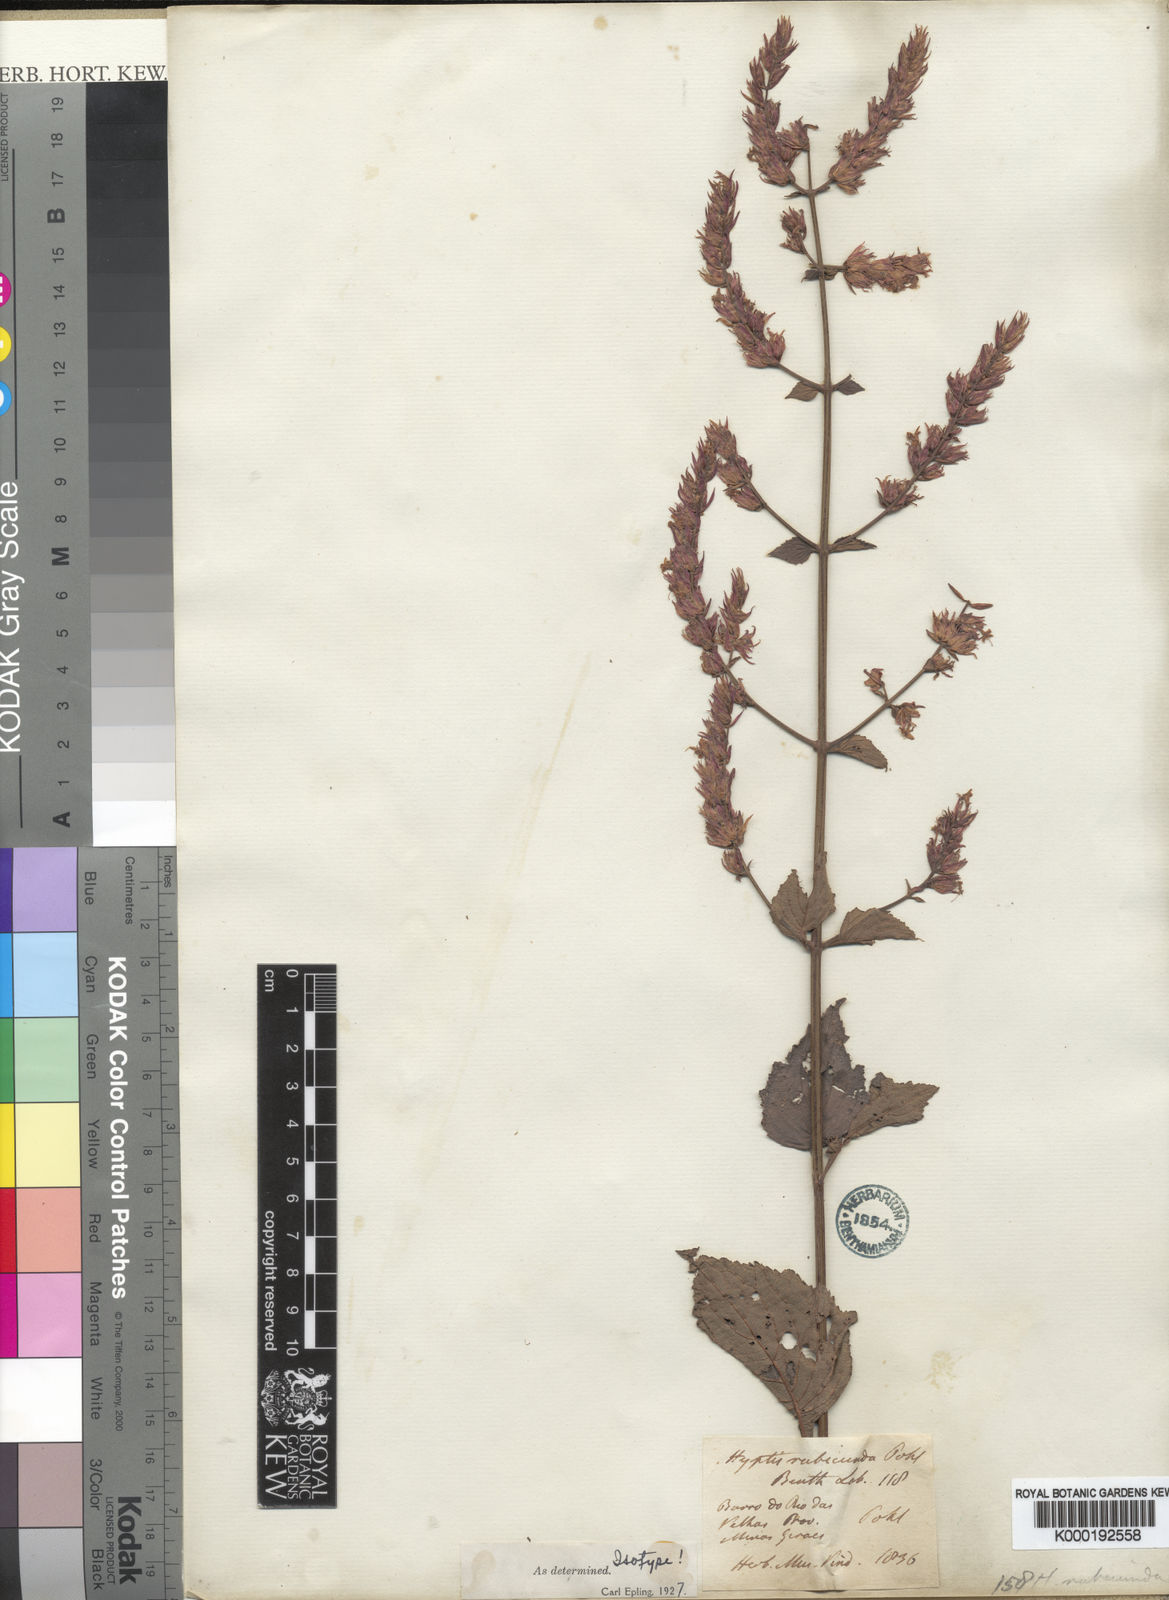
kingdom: Plantae
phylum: Tracheophyta
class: Magnoliopsida
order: Lamiales
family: Lamiaceae
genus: Cantinoa
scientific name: Cantinoa rubicunda
